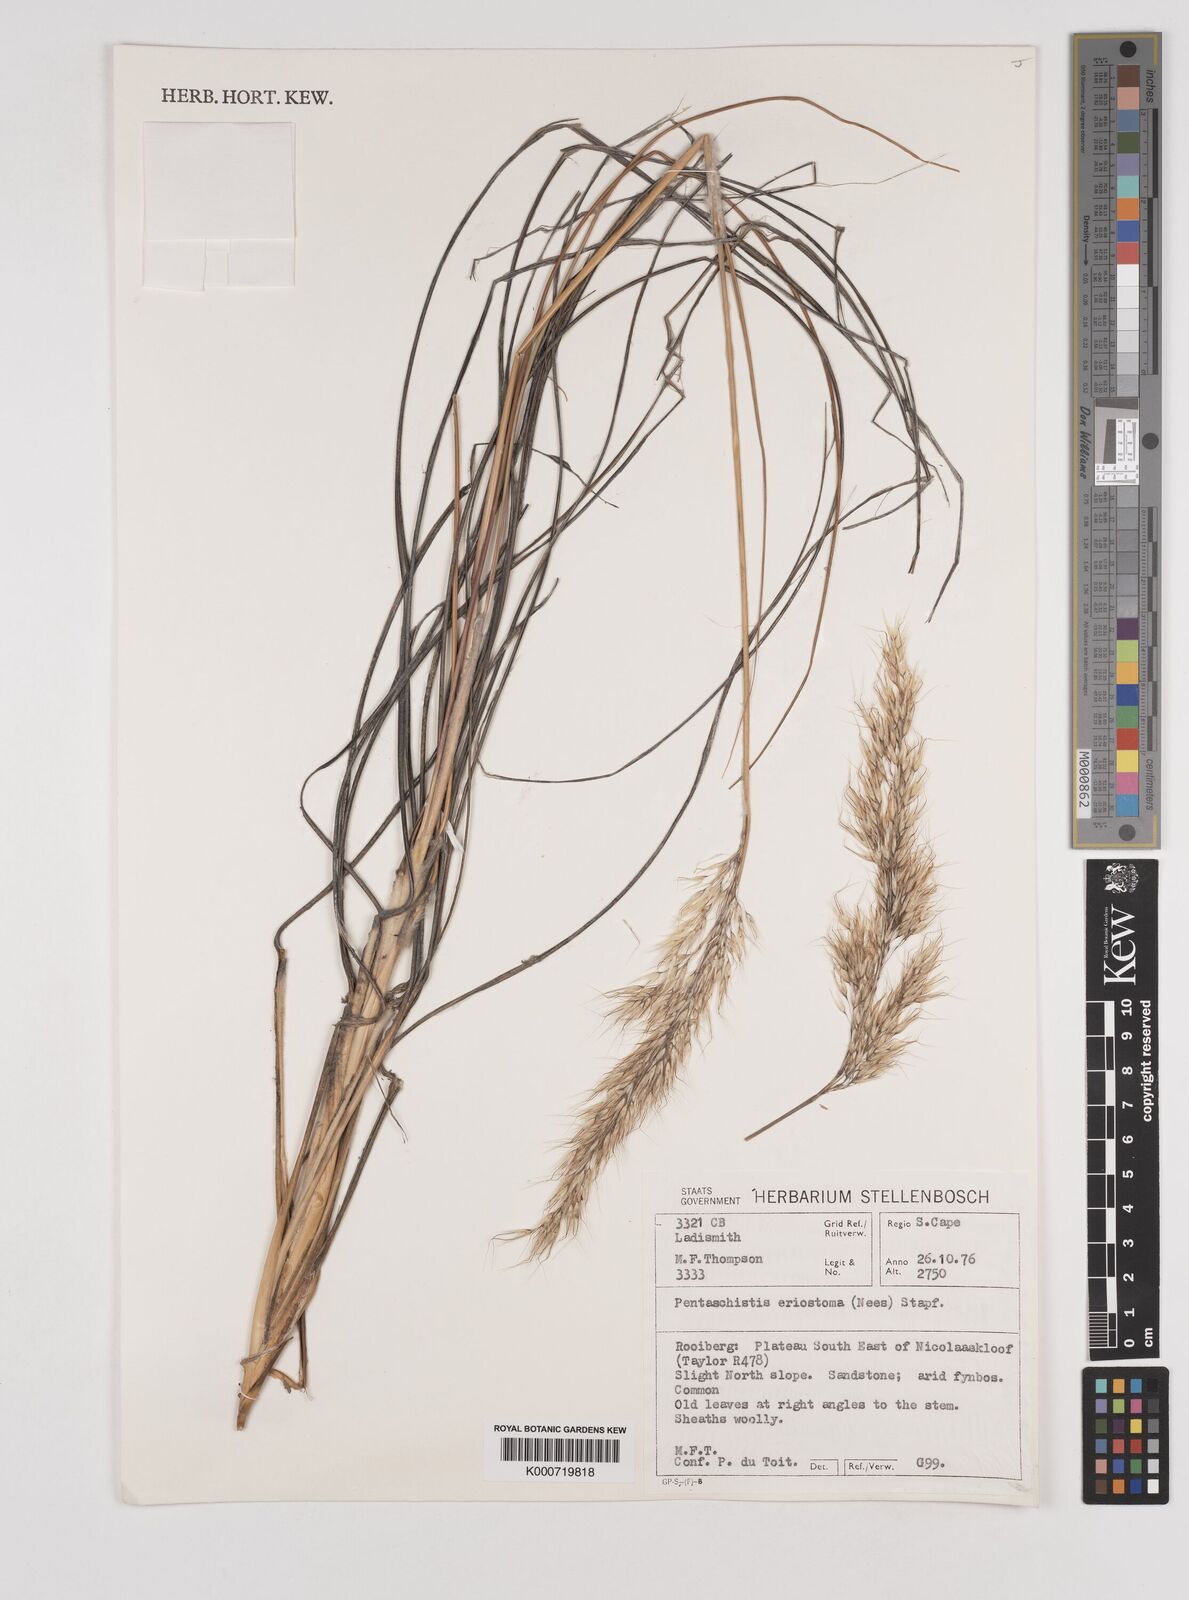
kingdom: Plantae
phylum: Tracheophyta
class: Liliopsida
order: Poales
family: Poaceae
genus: Pentameris
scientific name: Pentameris eriostoma
